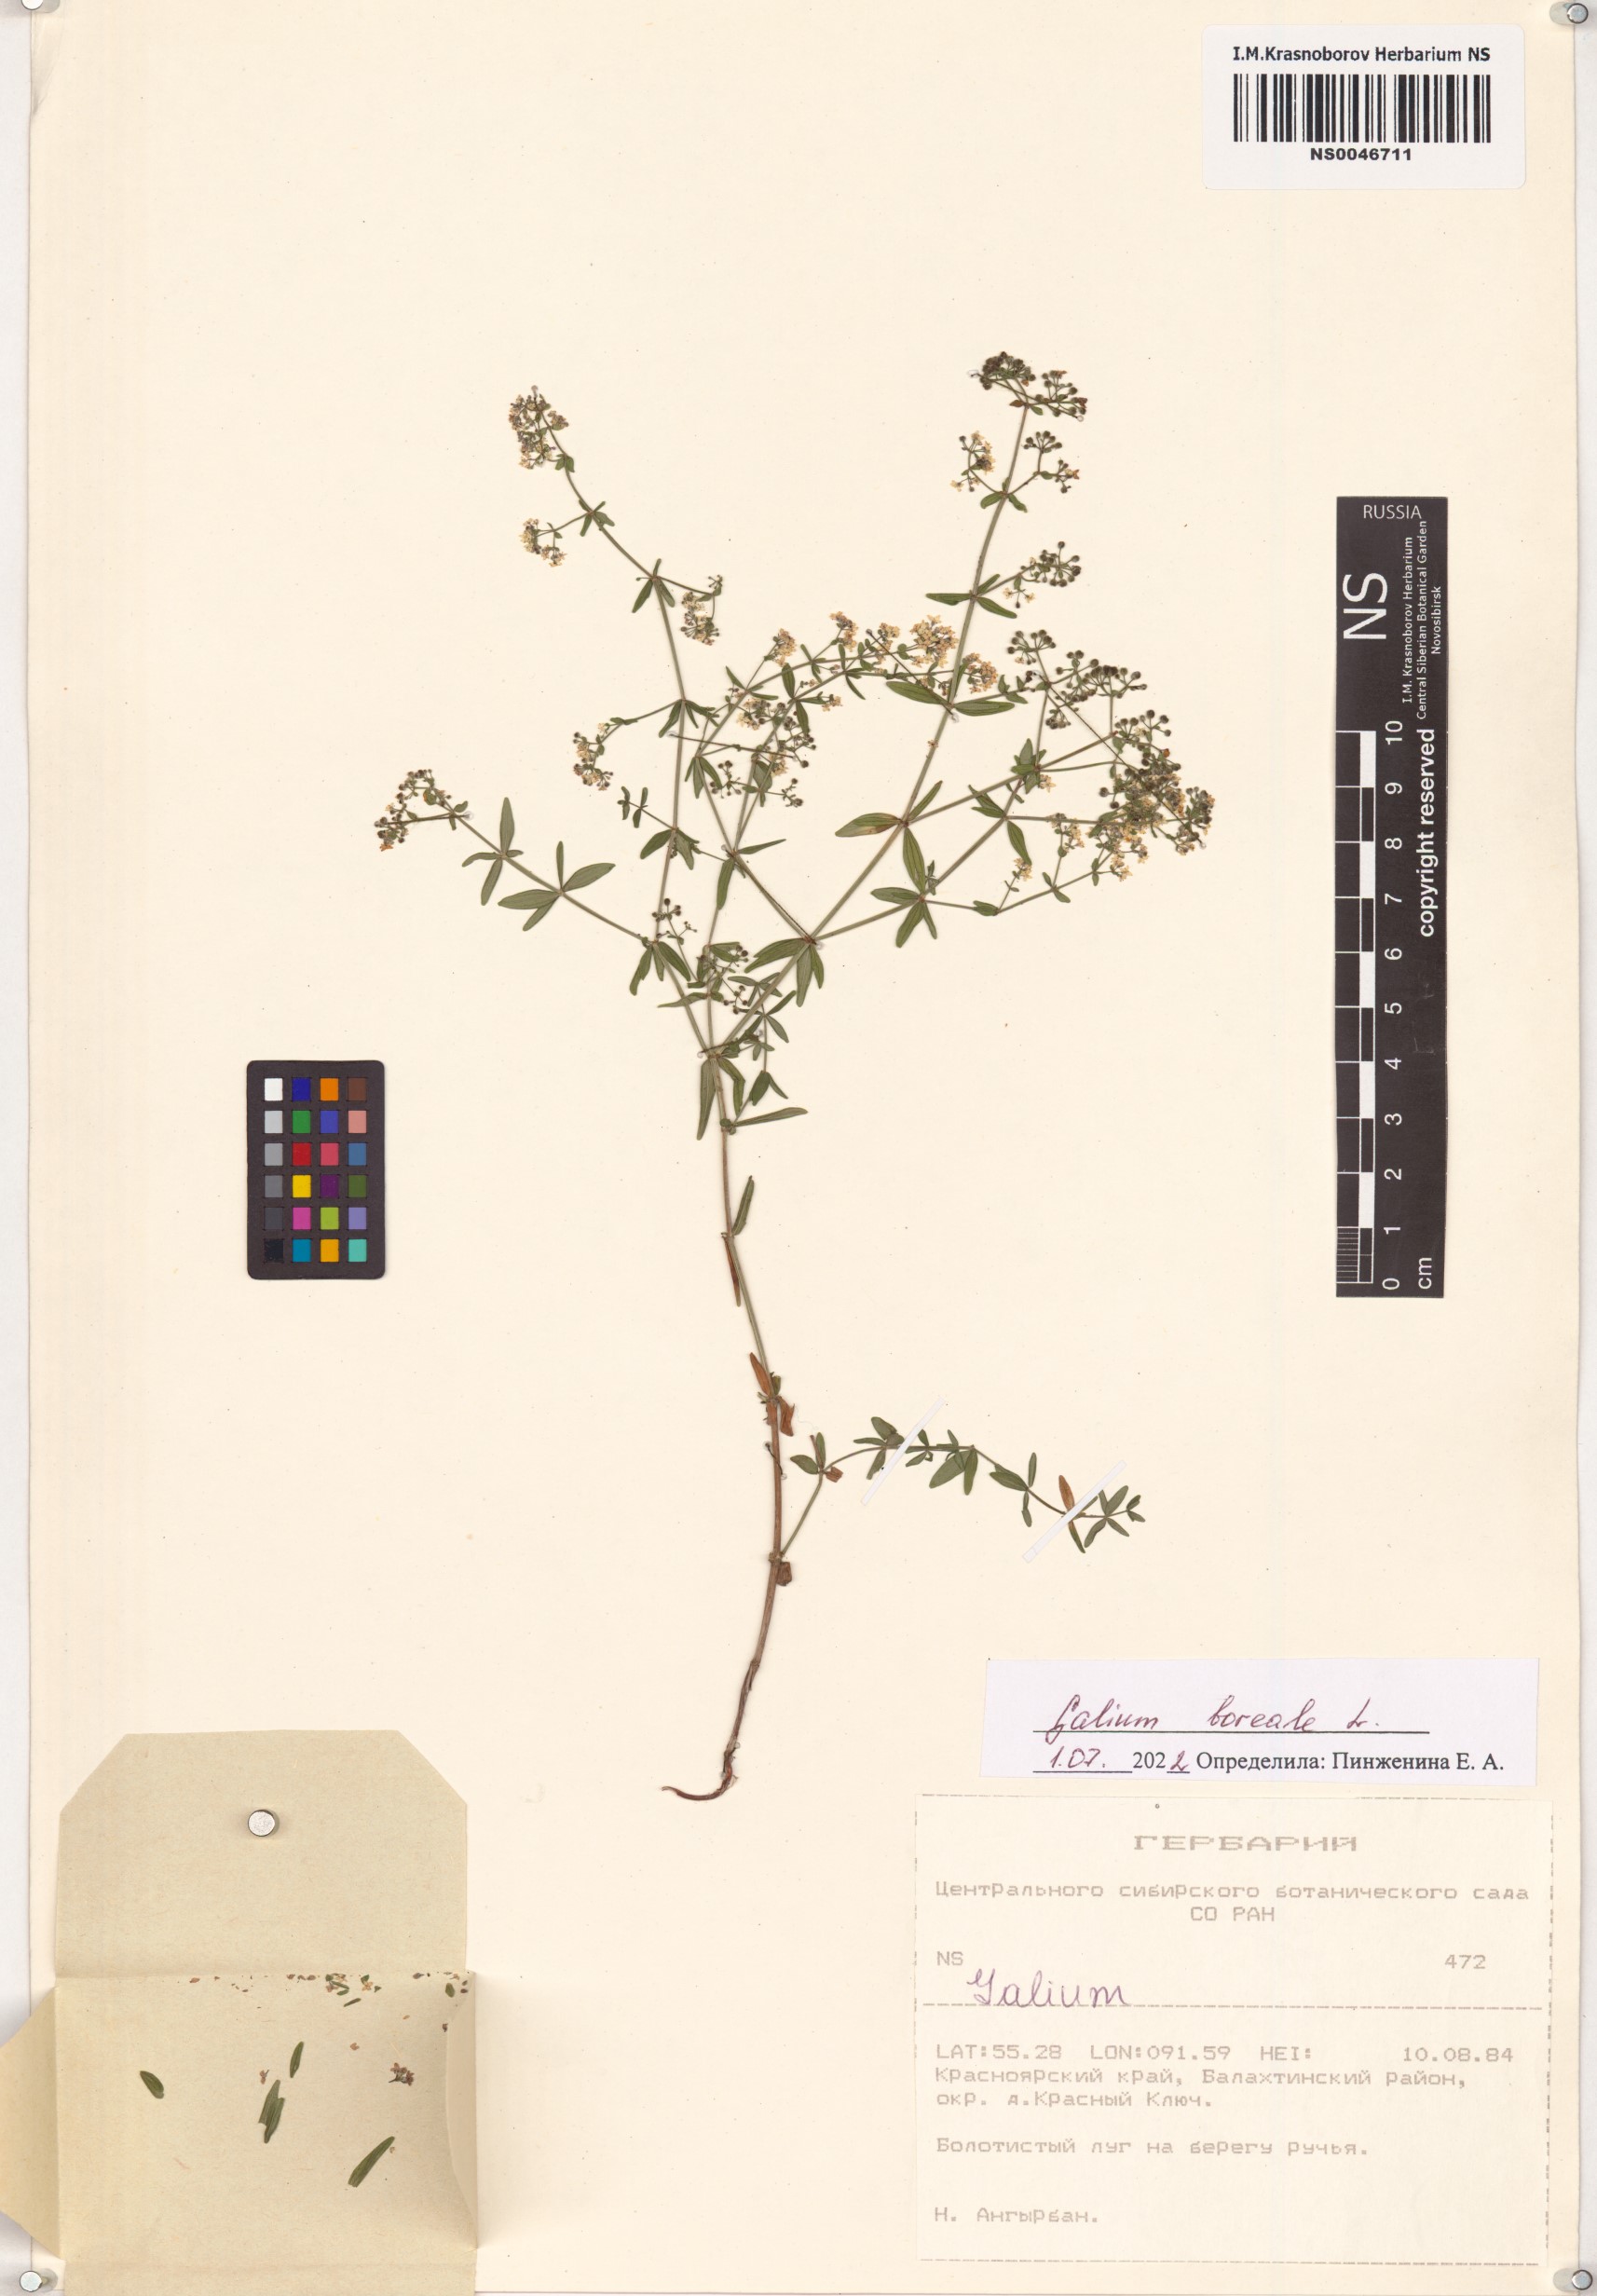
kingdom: Plantae
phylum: Tracheophyta
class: Magnoliopsida
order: Gentianales
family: Rubiaceae
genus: Galium
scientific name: Galium boreale
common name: Northern bedstraw
